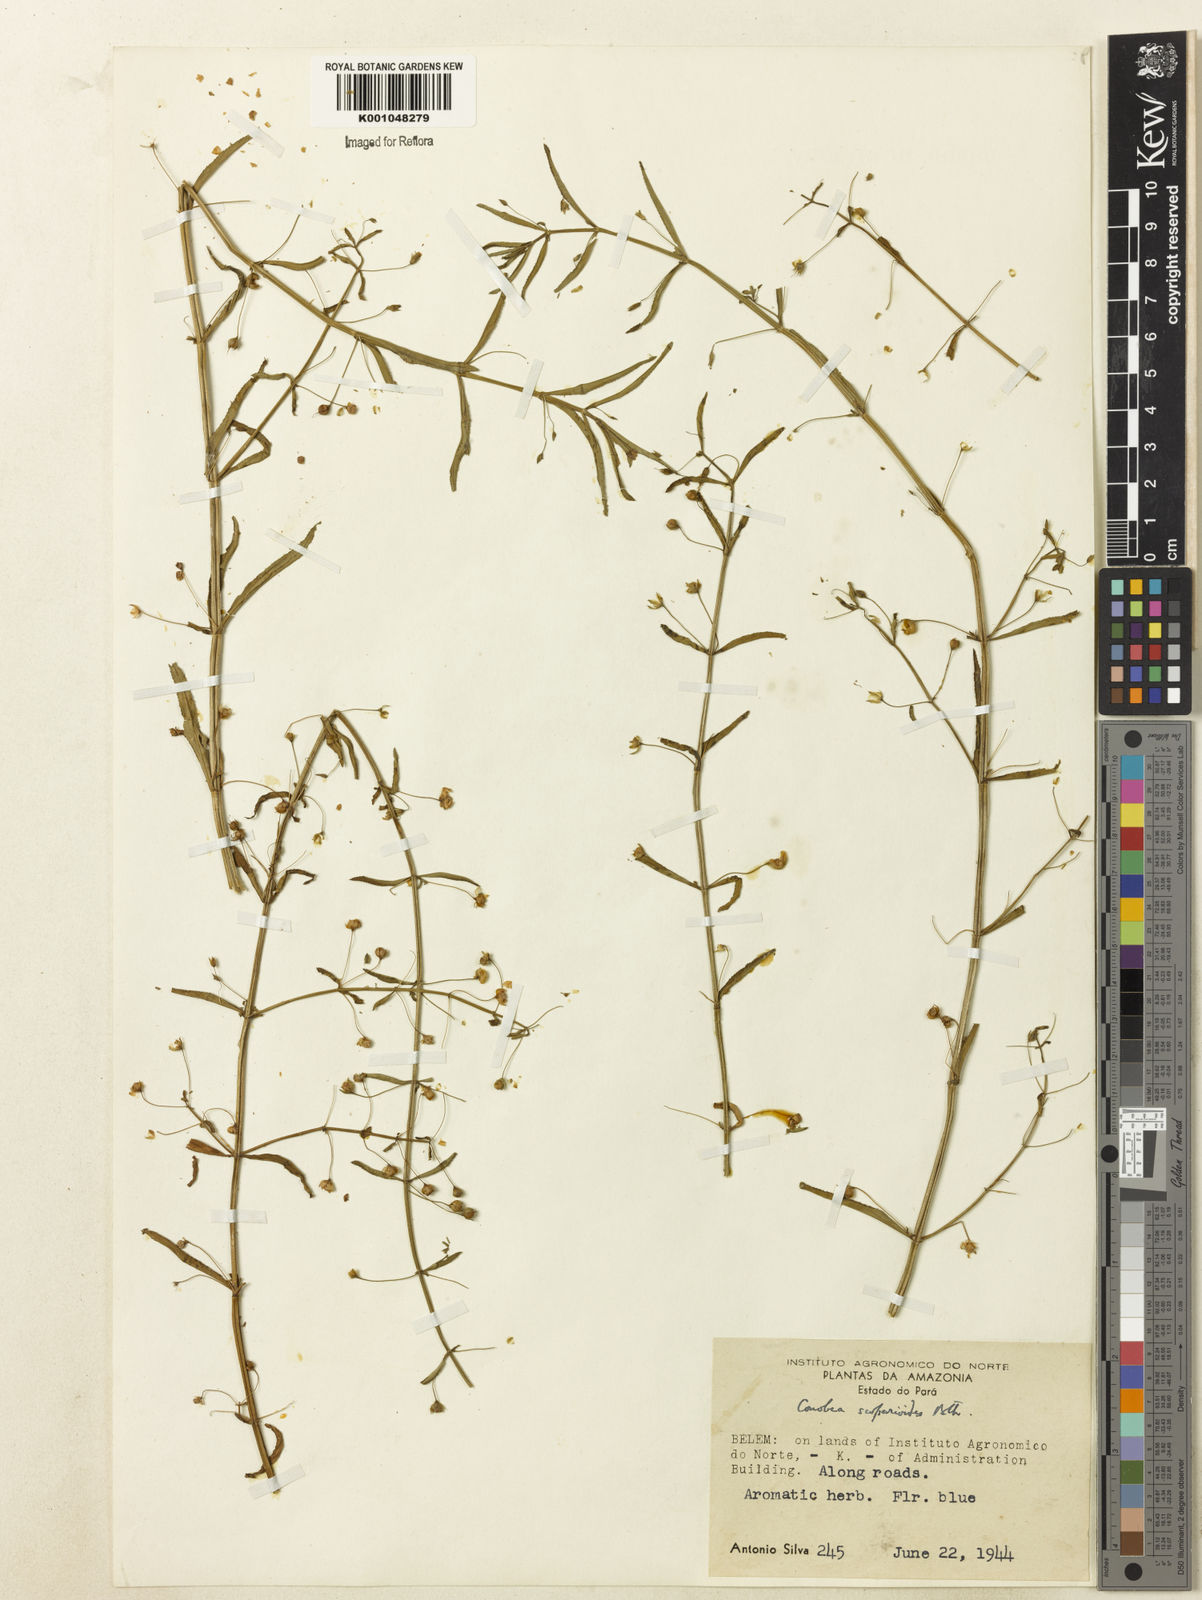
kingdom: Plantae
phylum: Tracheophyta
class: Magnoliopsida
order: Lamiales
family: Plantaginaceae
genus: Conobea
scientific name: Conobea scoparioides
